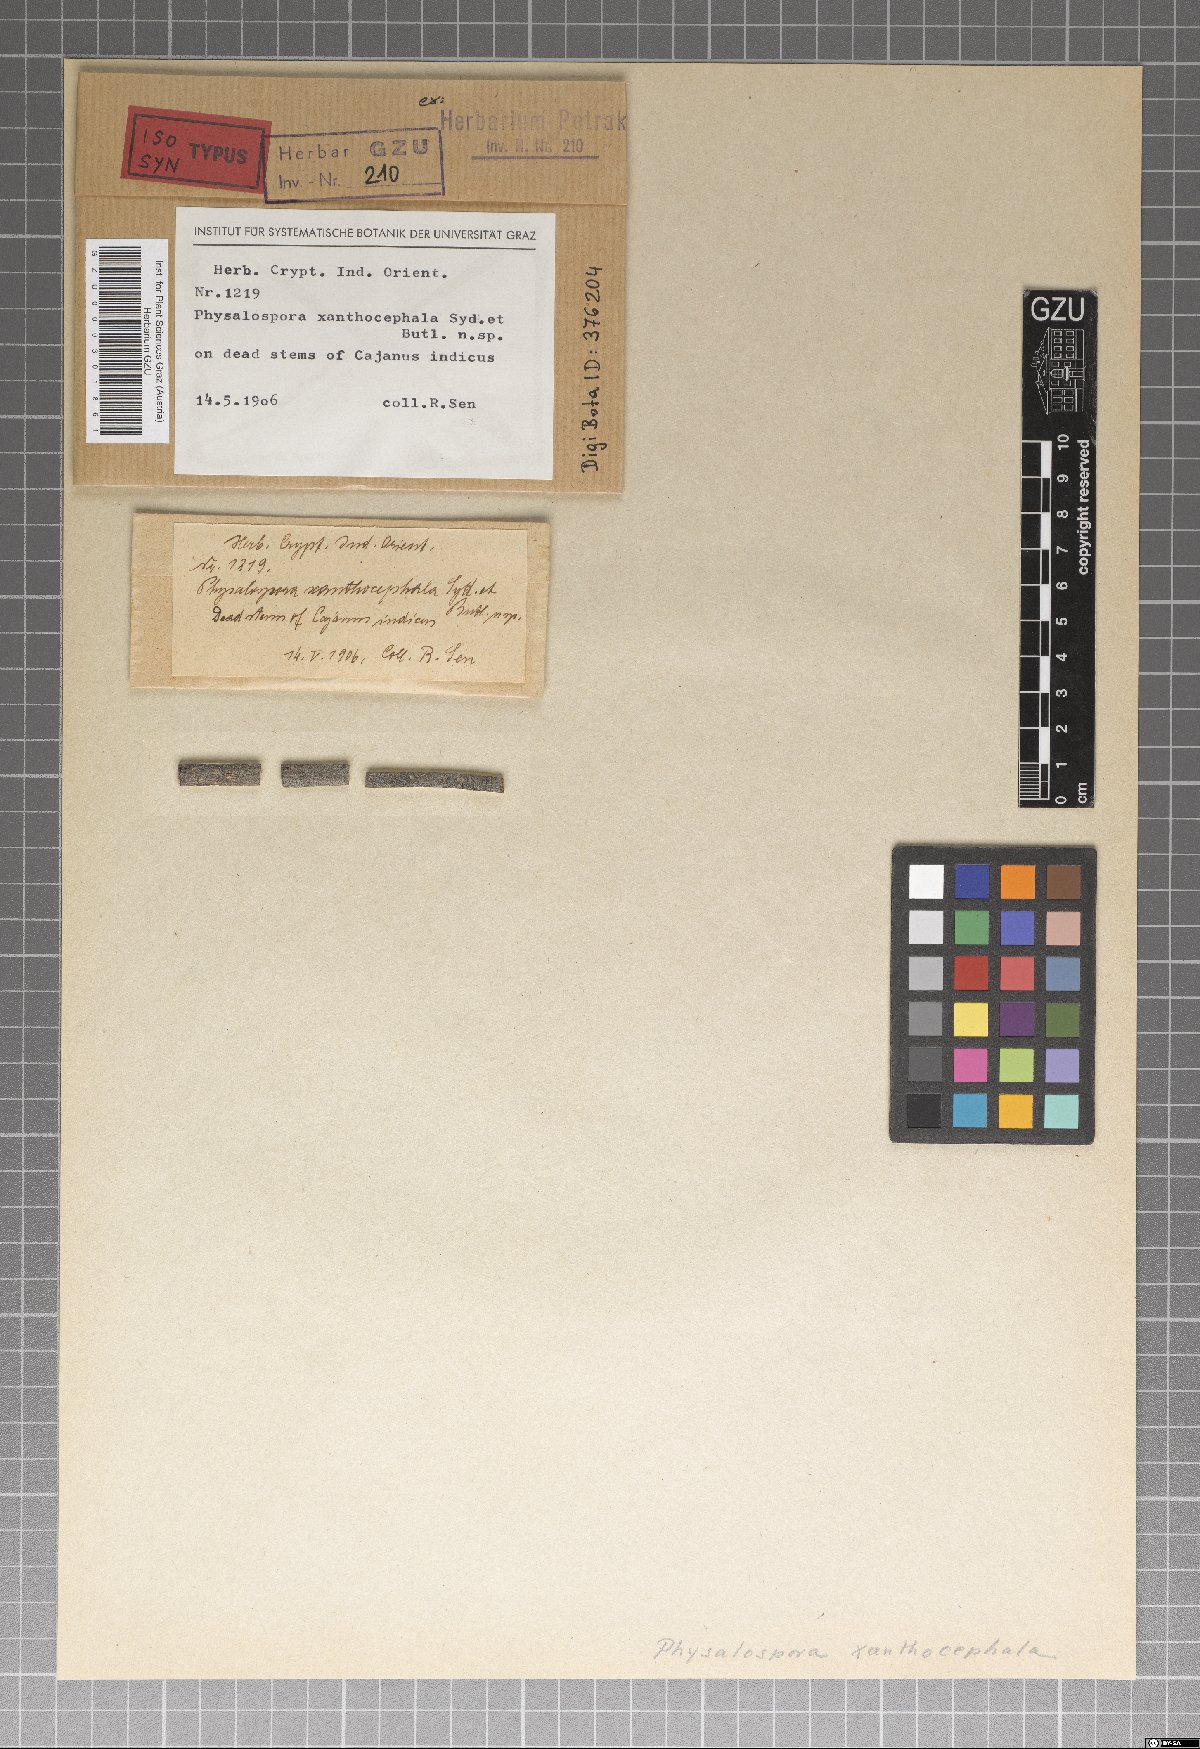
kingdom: Fungi
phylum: Ascomycota
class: Dothideomycetes
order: Botryosphaeriales
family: Botryosphaeriaceae
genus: Botryosphaeria
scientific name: Botryosphaeria xanthocephala
